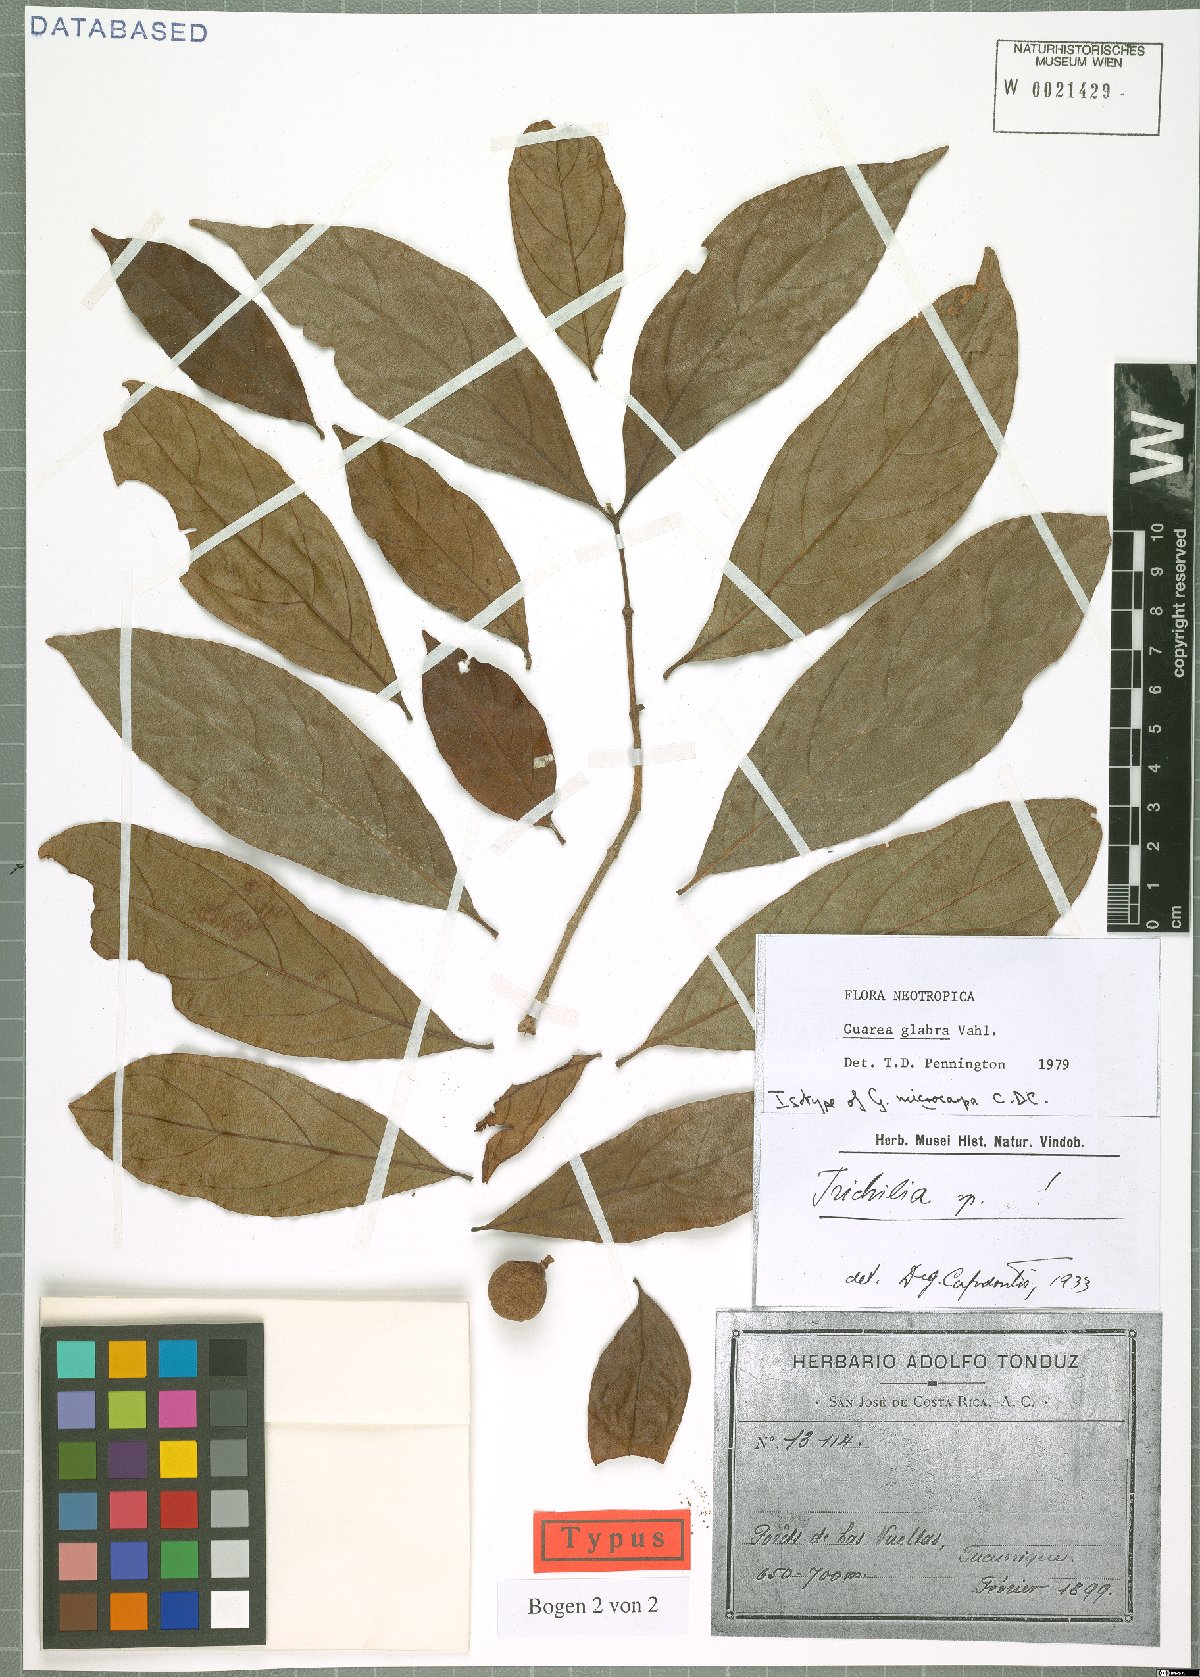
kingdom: Plantae
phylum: Tracheophyta
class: Magnoliopsida
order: Sapindales
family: Meliaceae
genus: Guarea
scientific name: Guarea glabra
